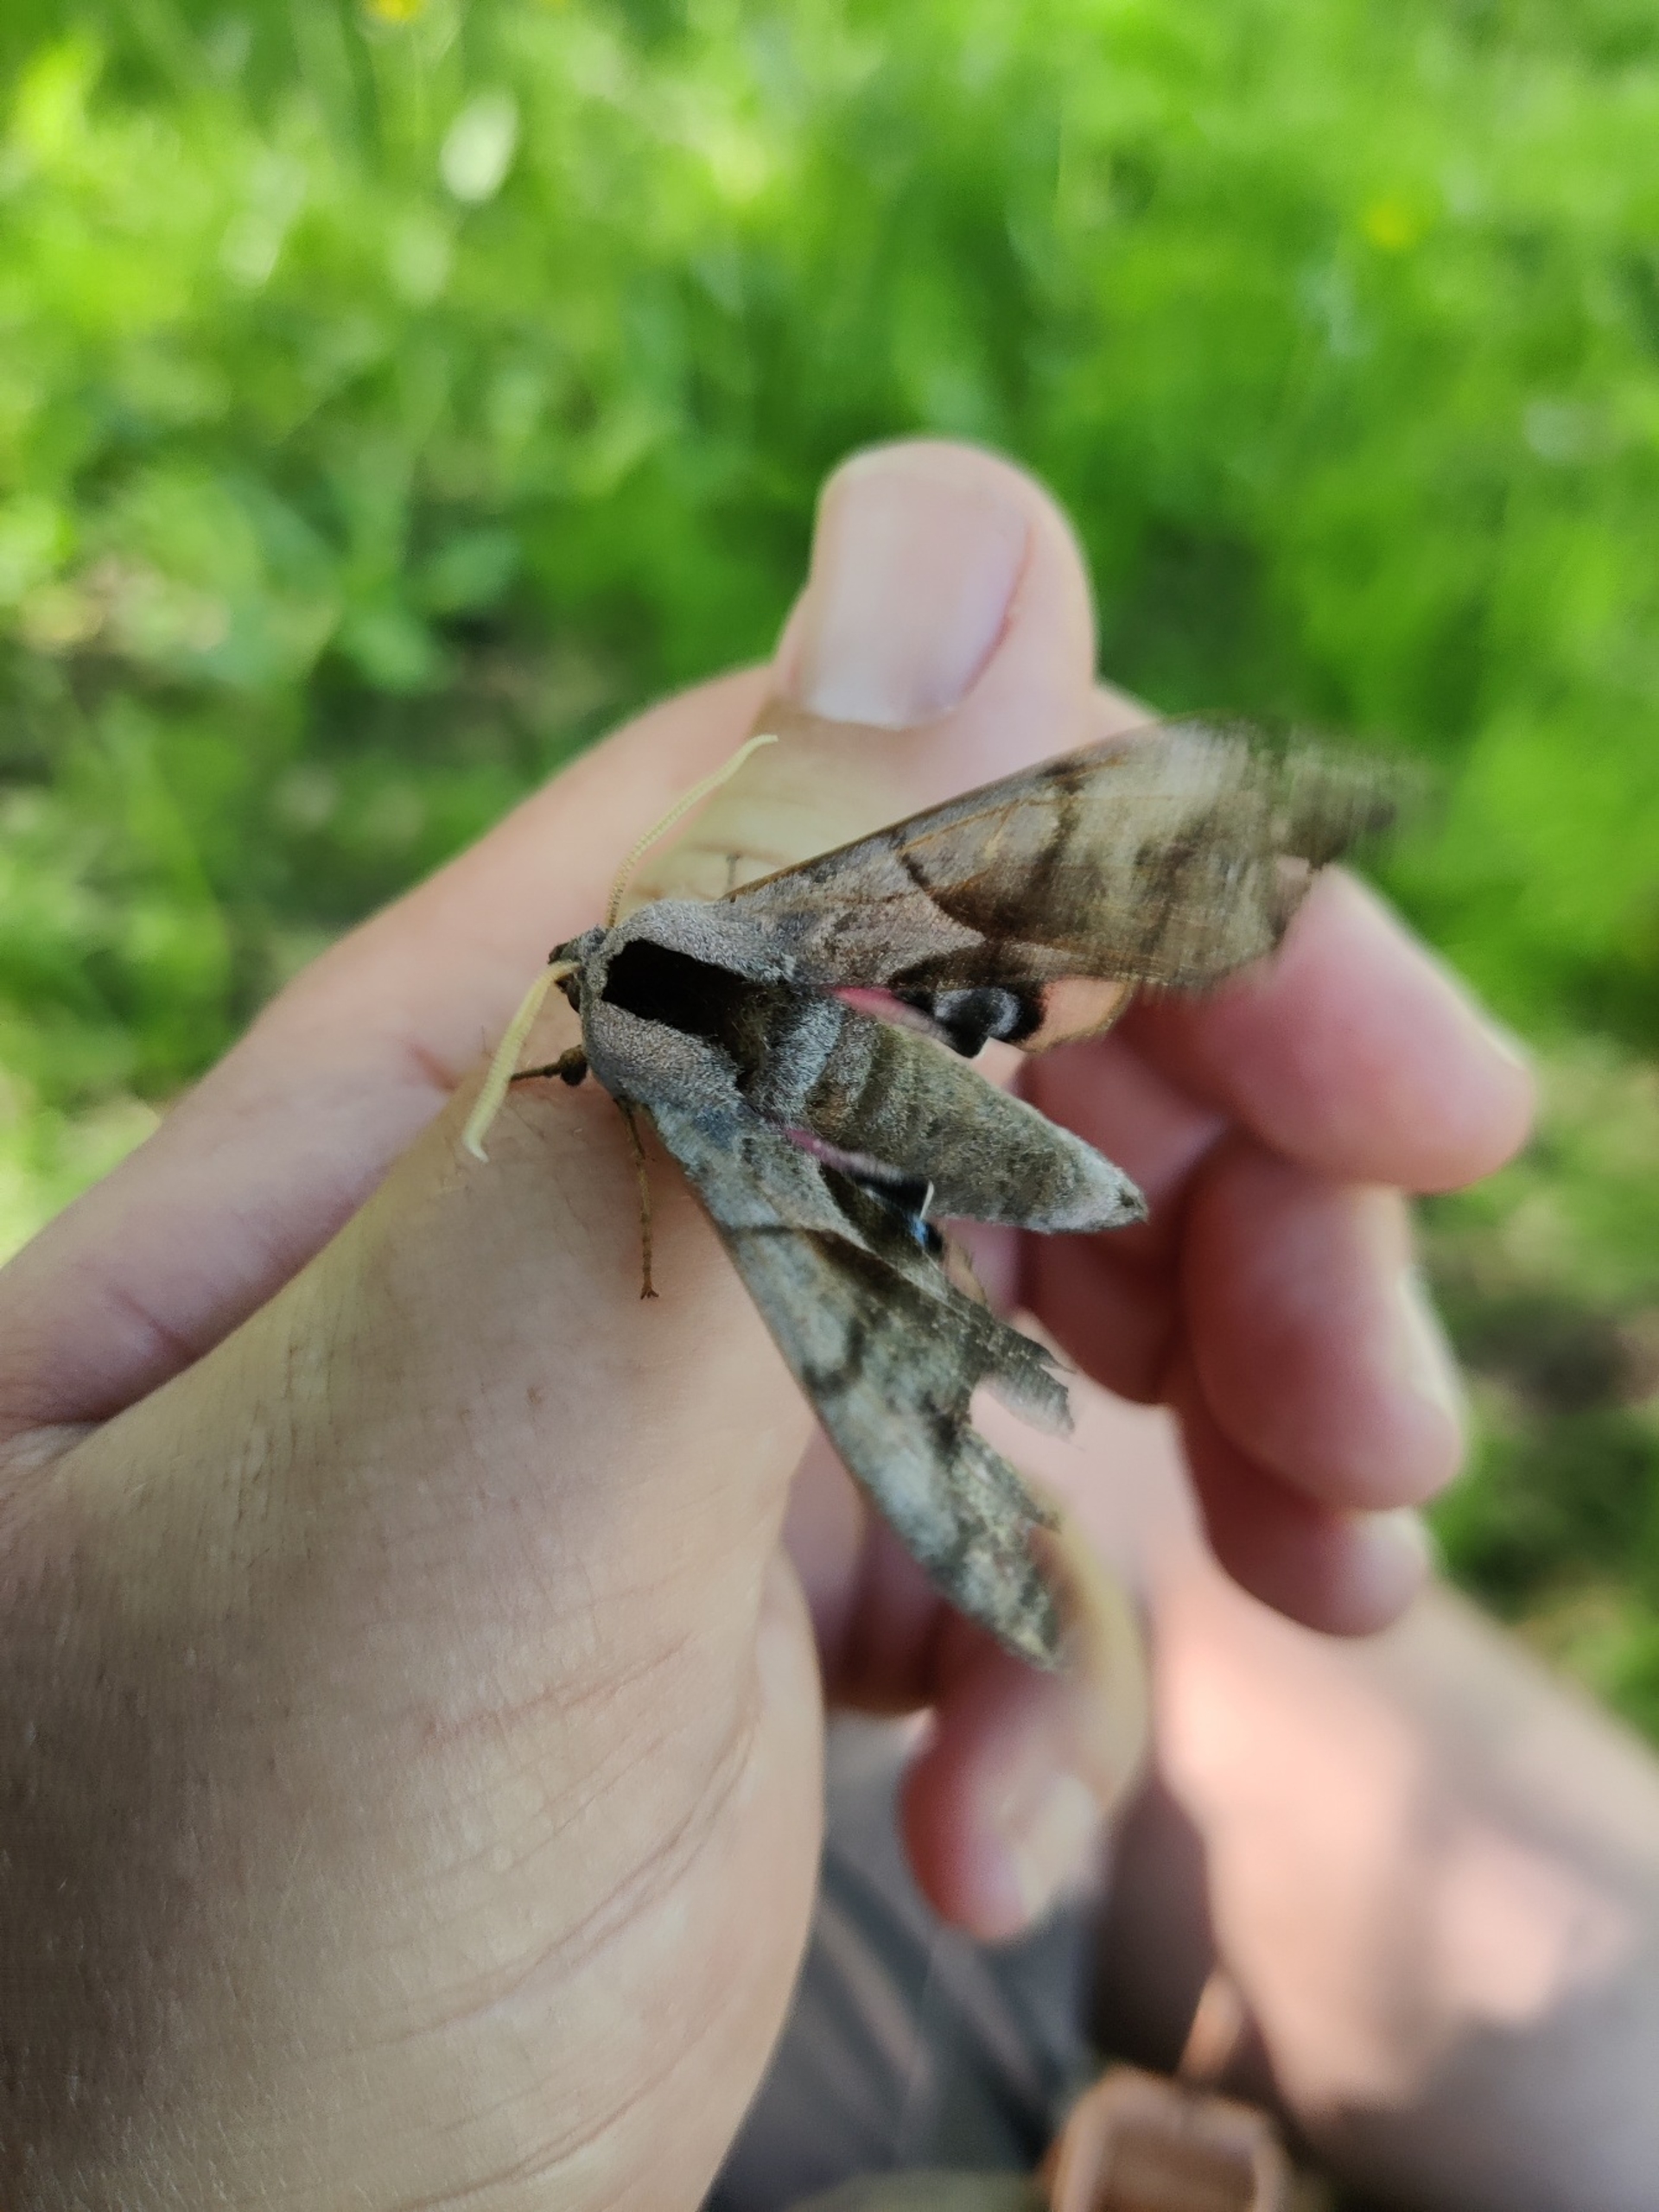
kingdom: Animalia
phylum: Arthropoda
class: Insecta
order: Lepidoptera
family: Sphingidae
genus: Smerinthus
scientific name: Smerinthus ocellata
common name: Aftenpåfugleøje
